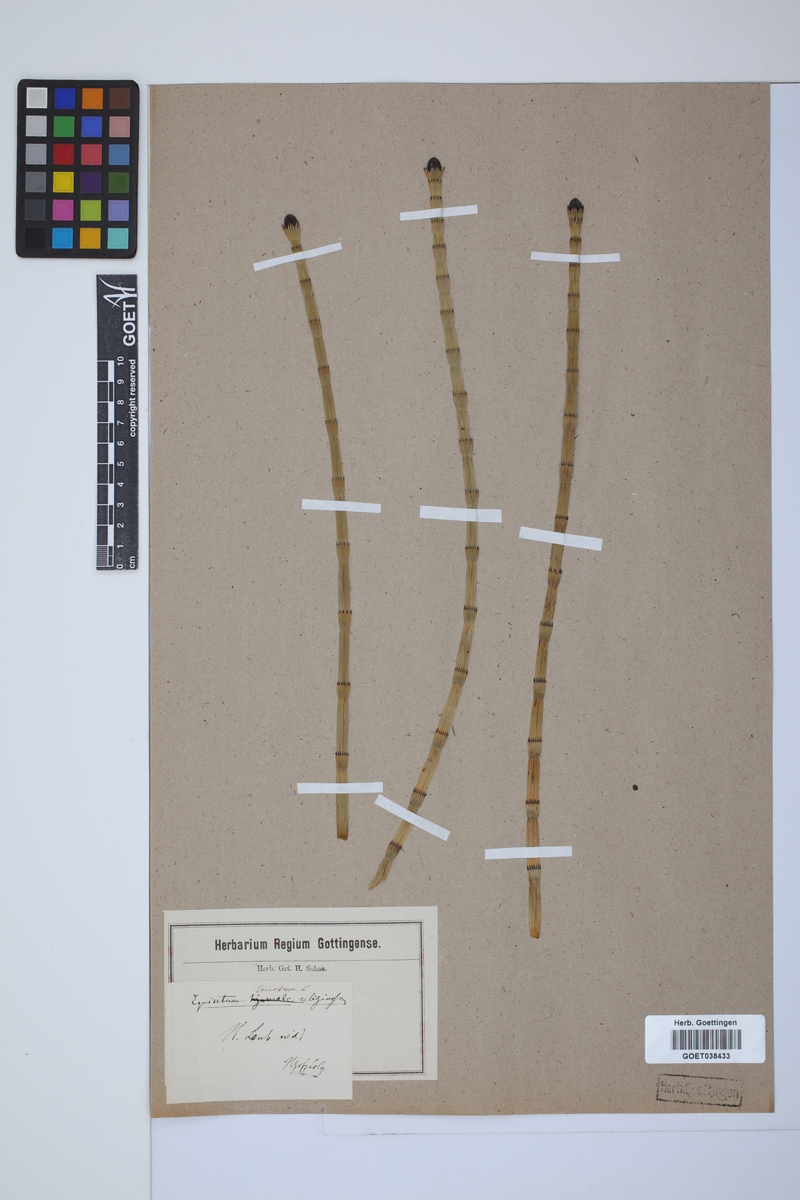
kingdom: Plantae
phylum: Tracheophyta
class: Polypodiopsida
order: Equisetales
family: Equisetaceae
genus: Equisetum
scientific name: Equisetum fluviatile
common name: Water horsetail
